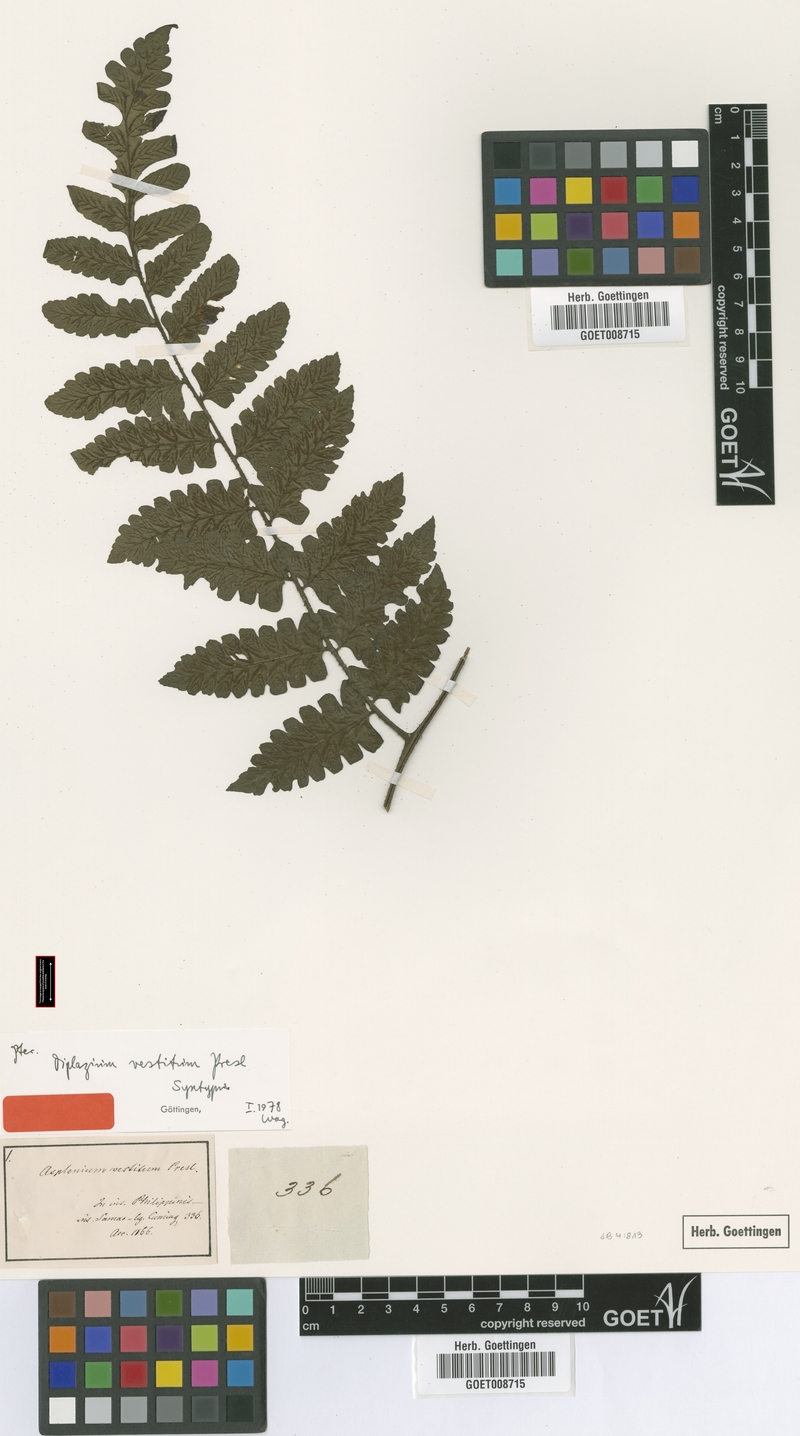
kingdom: Plantae
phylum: Tracheophyta
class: Polypodiopsida
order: Polypodiales
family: Athyriaceae
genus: Diplazium
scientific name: Diplazium vestitum
